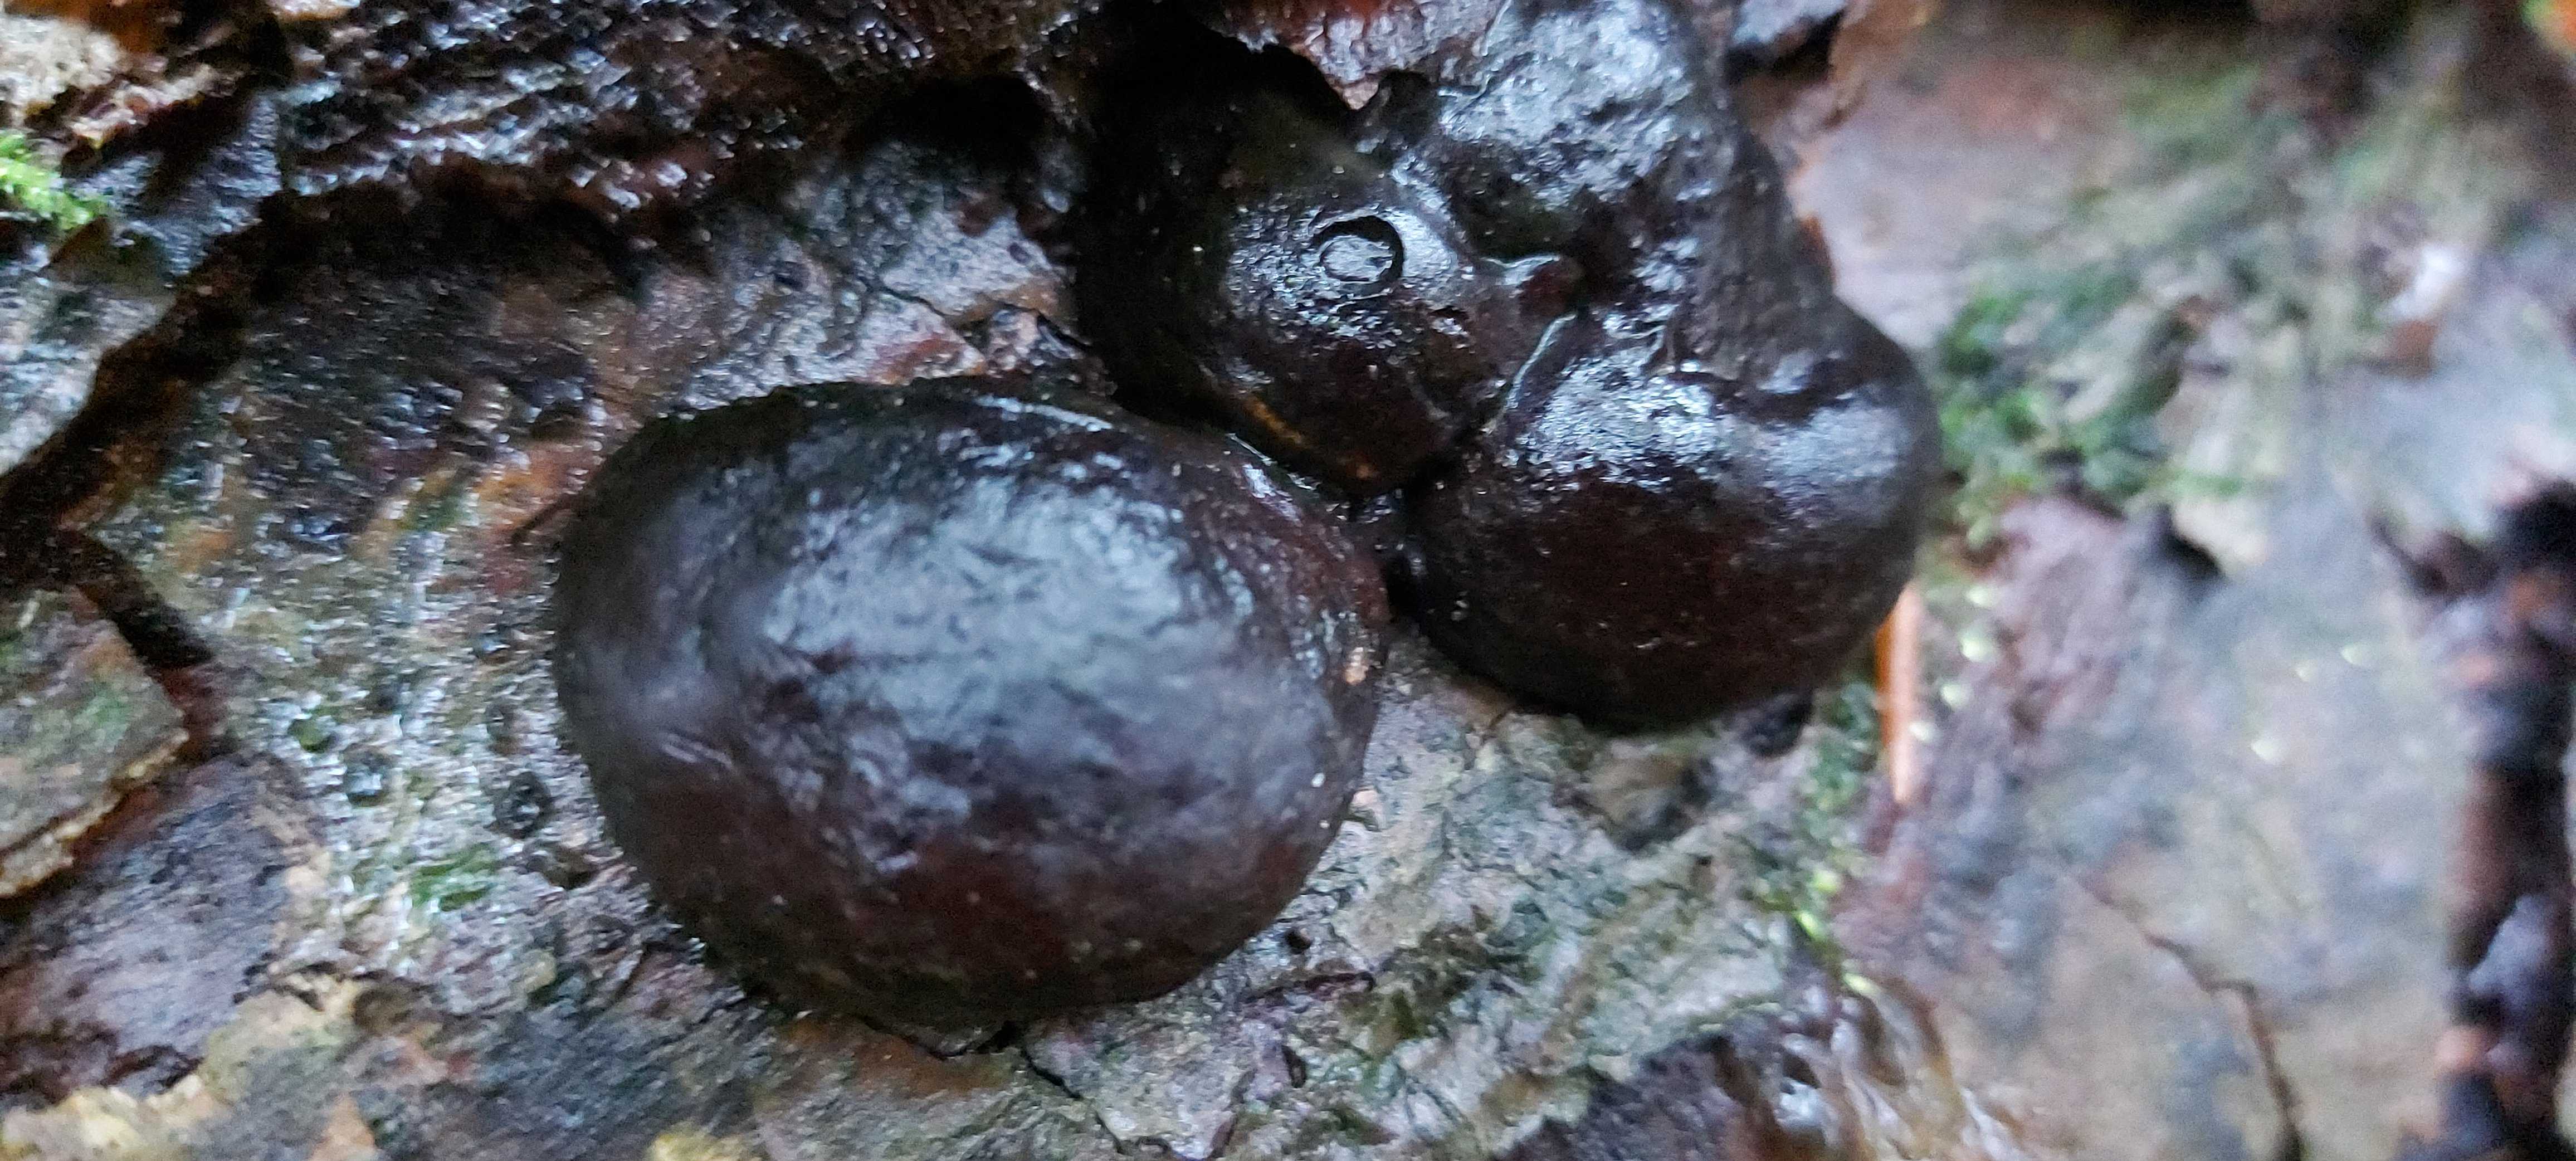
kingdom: Fungi
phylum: Ascomycota
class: Sordariomycetes
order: Xylariales
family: Hypoxylaceae
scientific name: Hypoxylaceae
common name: kulbærfamilien
